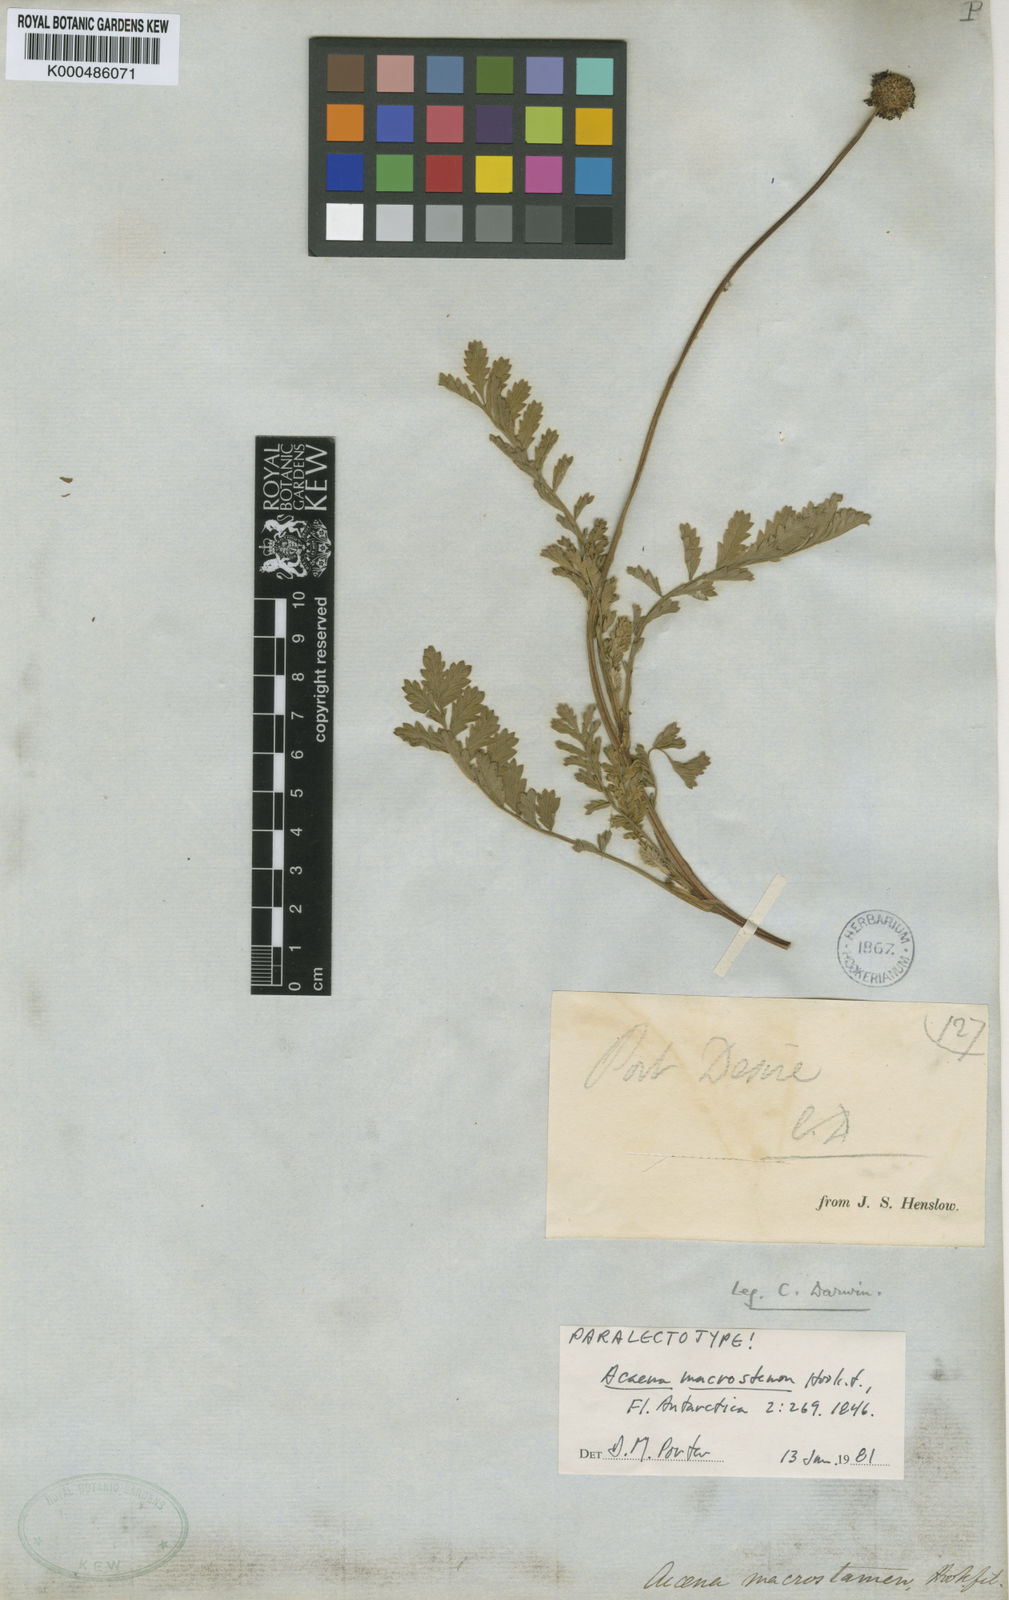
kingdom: Plantae
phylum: Tracheophyta
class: Magnoliopsida
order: Rosales
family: Rosaceae
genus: Acaena
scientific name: Acaena magellanica
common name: New zealand burr
